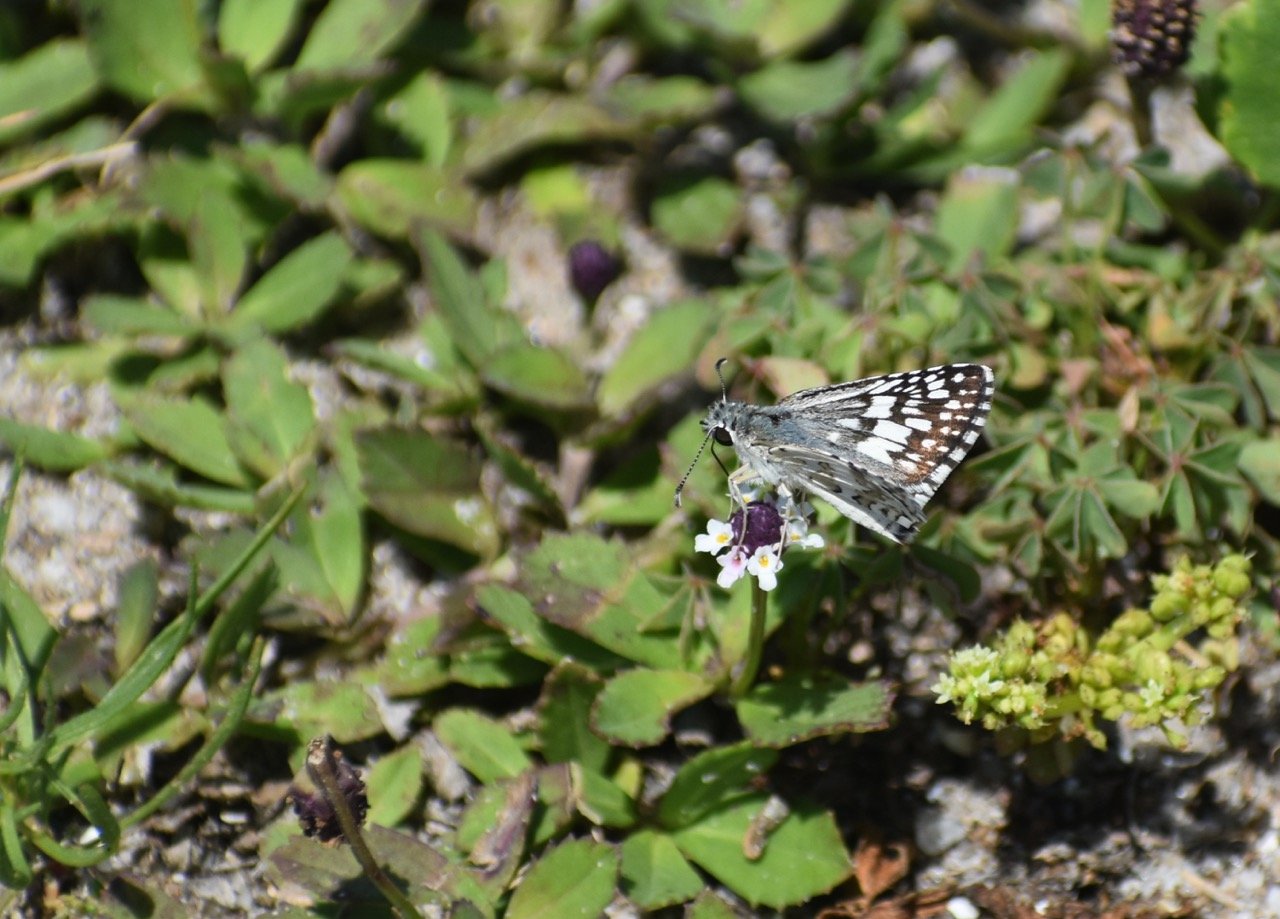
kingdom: Animalia
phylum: Arthropoda
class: Insecta
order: Lepidoptera
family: Hesperiidae
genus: Pyrgus
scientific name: Pyrgus communis
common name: White Checkered-Skipper
